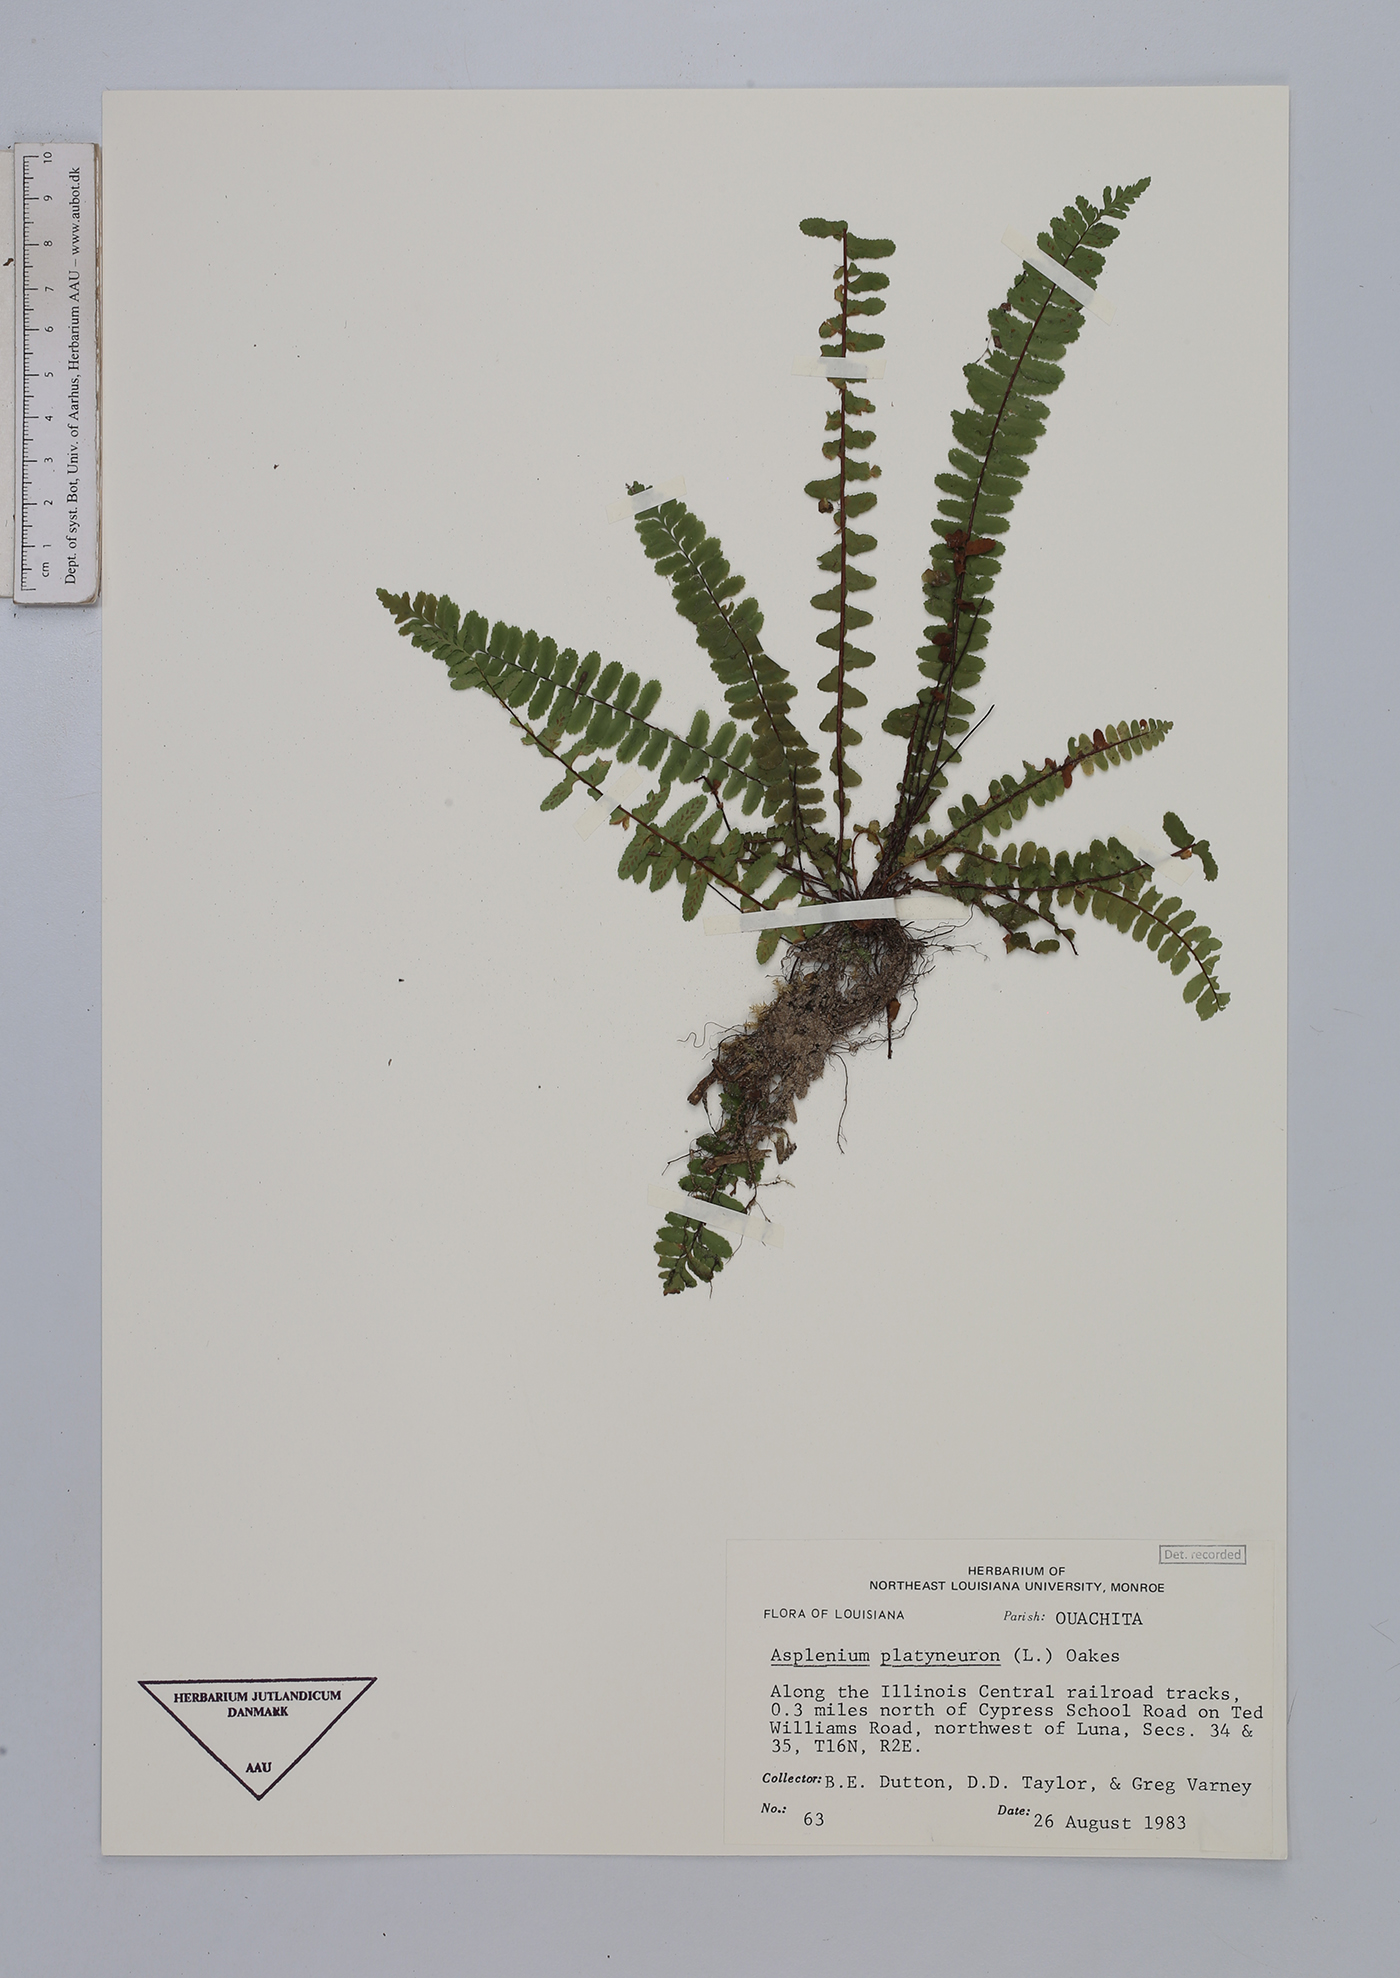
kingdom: Plantae
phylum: Tracheophyta
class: Polypodiopsida
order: Polypodiales
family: Aspleniaceae
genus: Asplenium
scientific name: Asplenium platyneuron
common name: Ebony spleenwort
